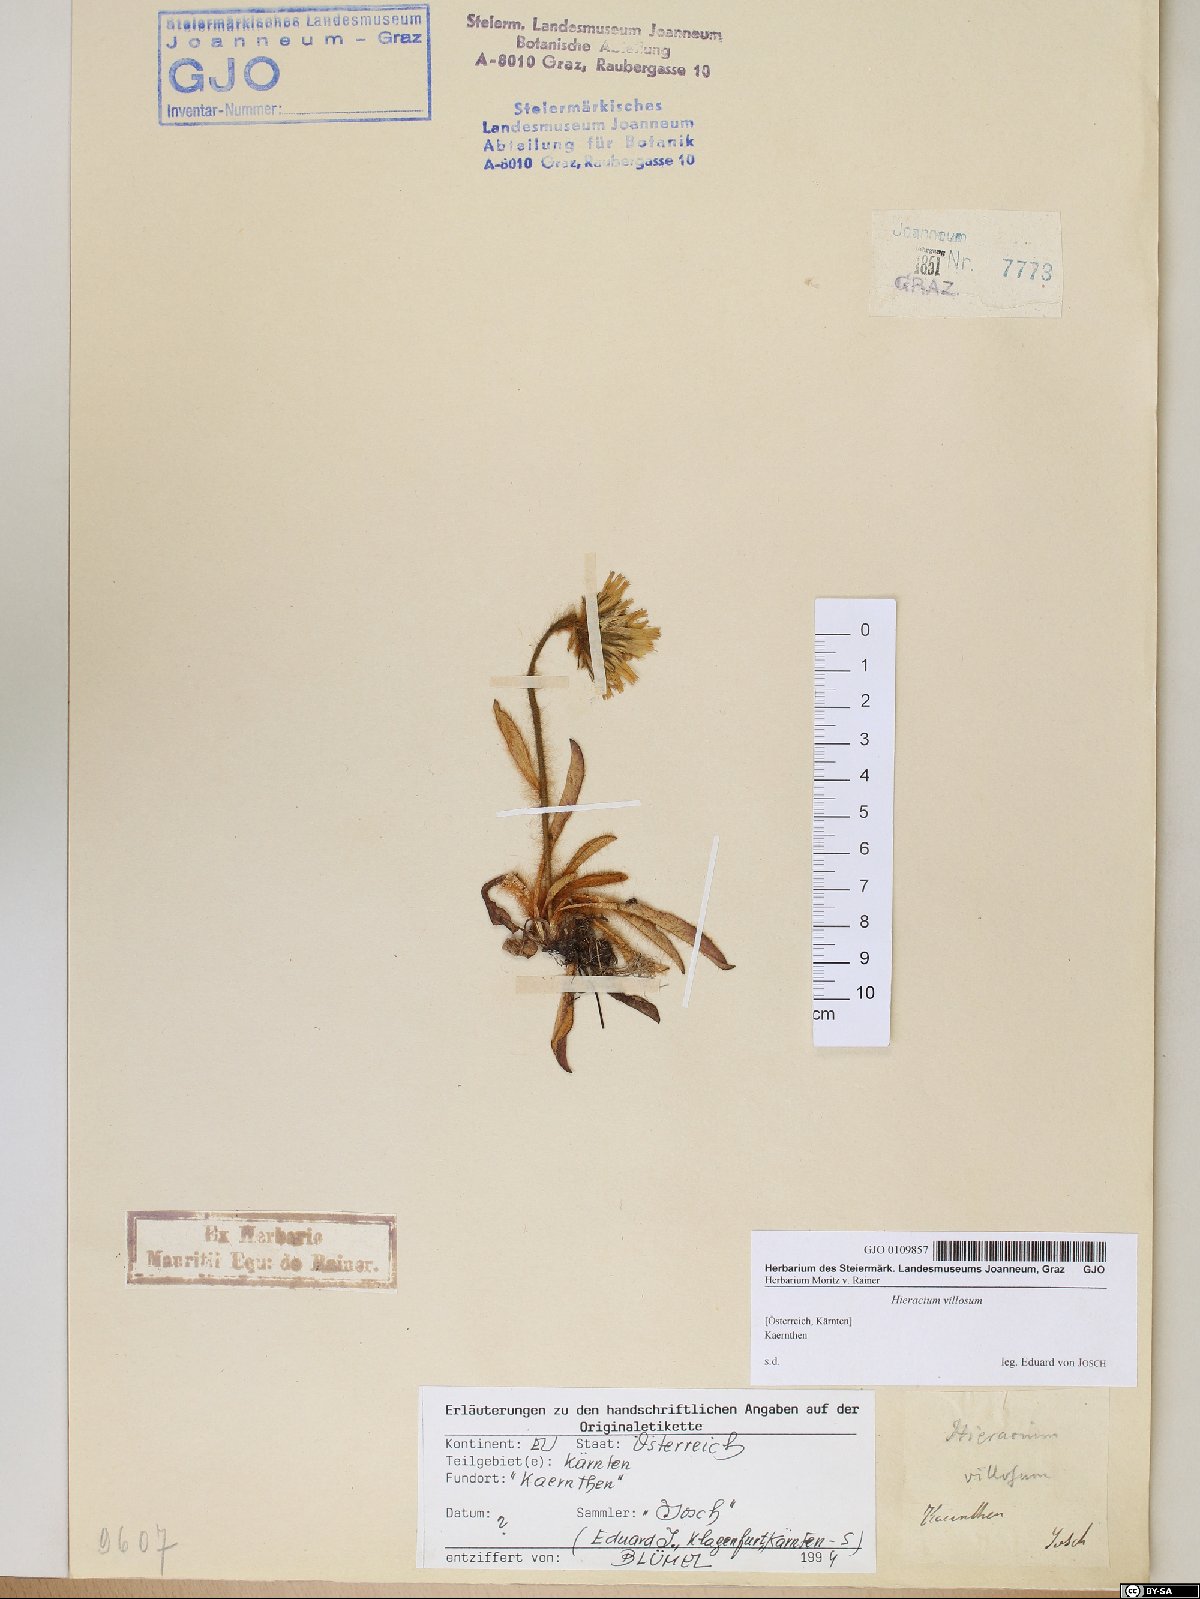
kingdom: Plantae
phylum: Tracheophyta
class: Magnoliopsida
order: Asterales
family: Asteraceae
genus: Hieracium
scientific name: Hieracium villosum
